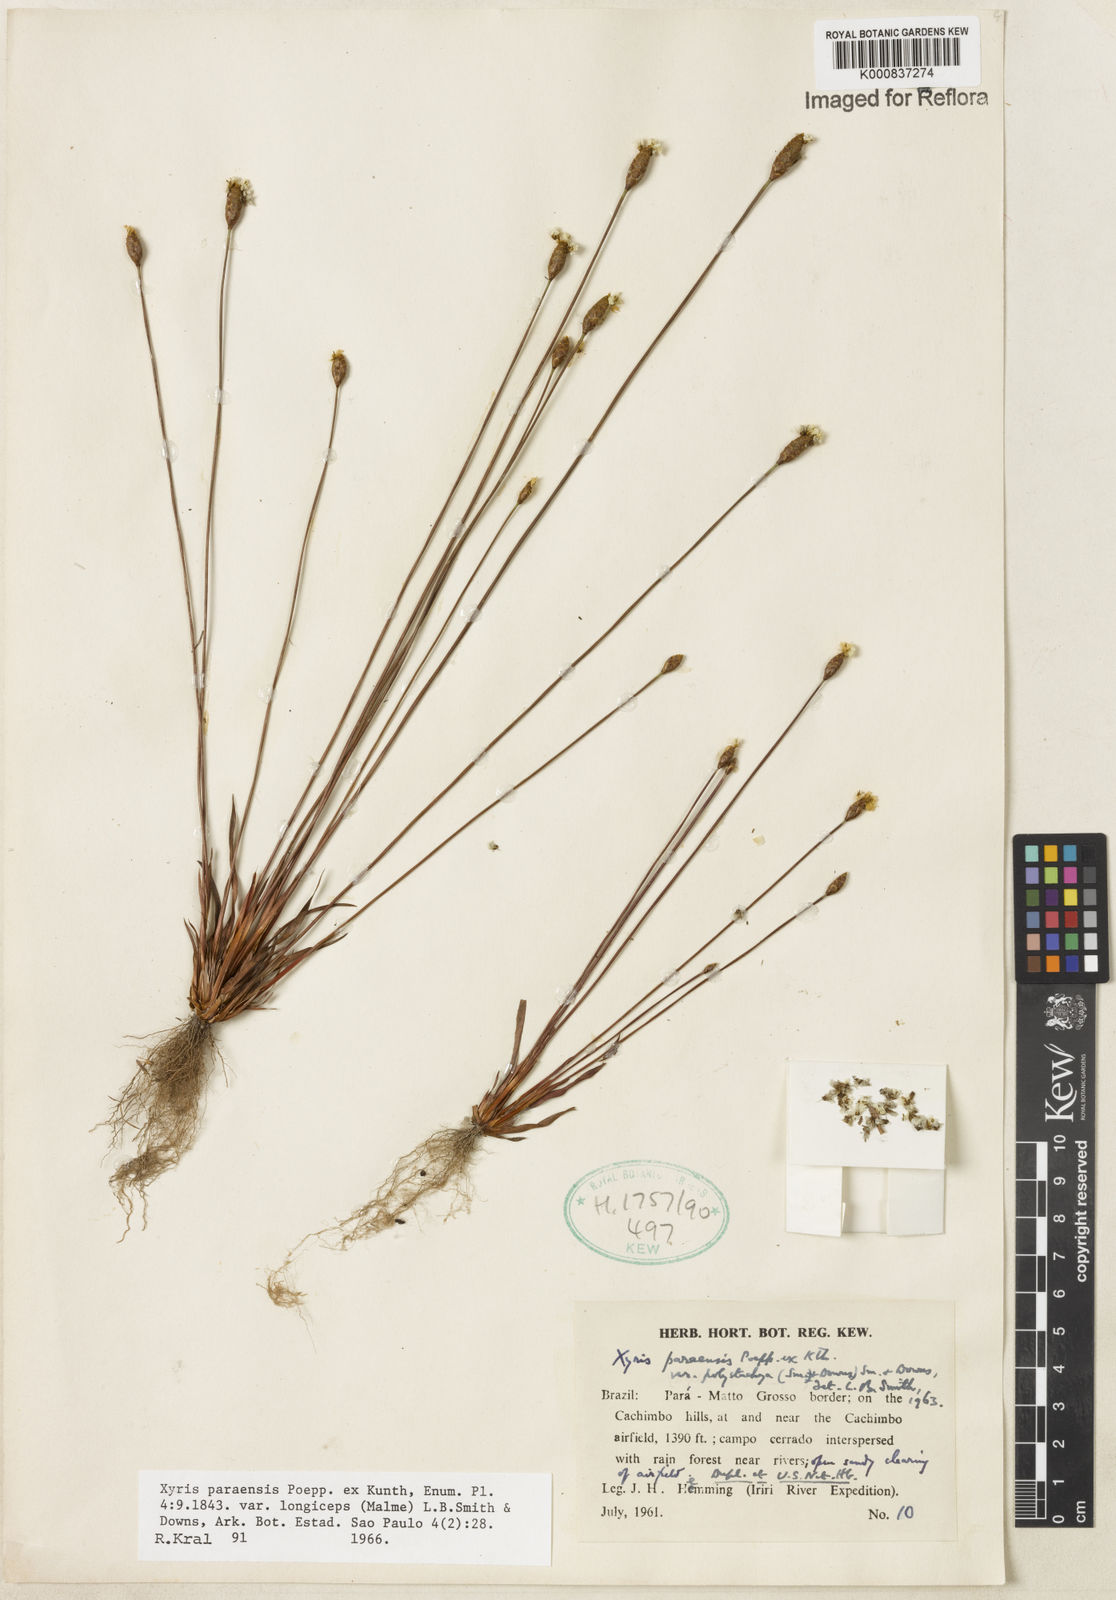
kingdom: Plantae
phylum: Tracheophyta
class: Liliopsida
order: Poales
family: Xyridaceae
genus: Xyris
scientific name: Xyris paraensis
